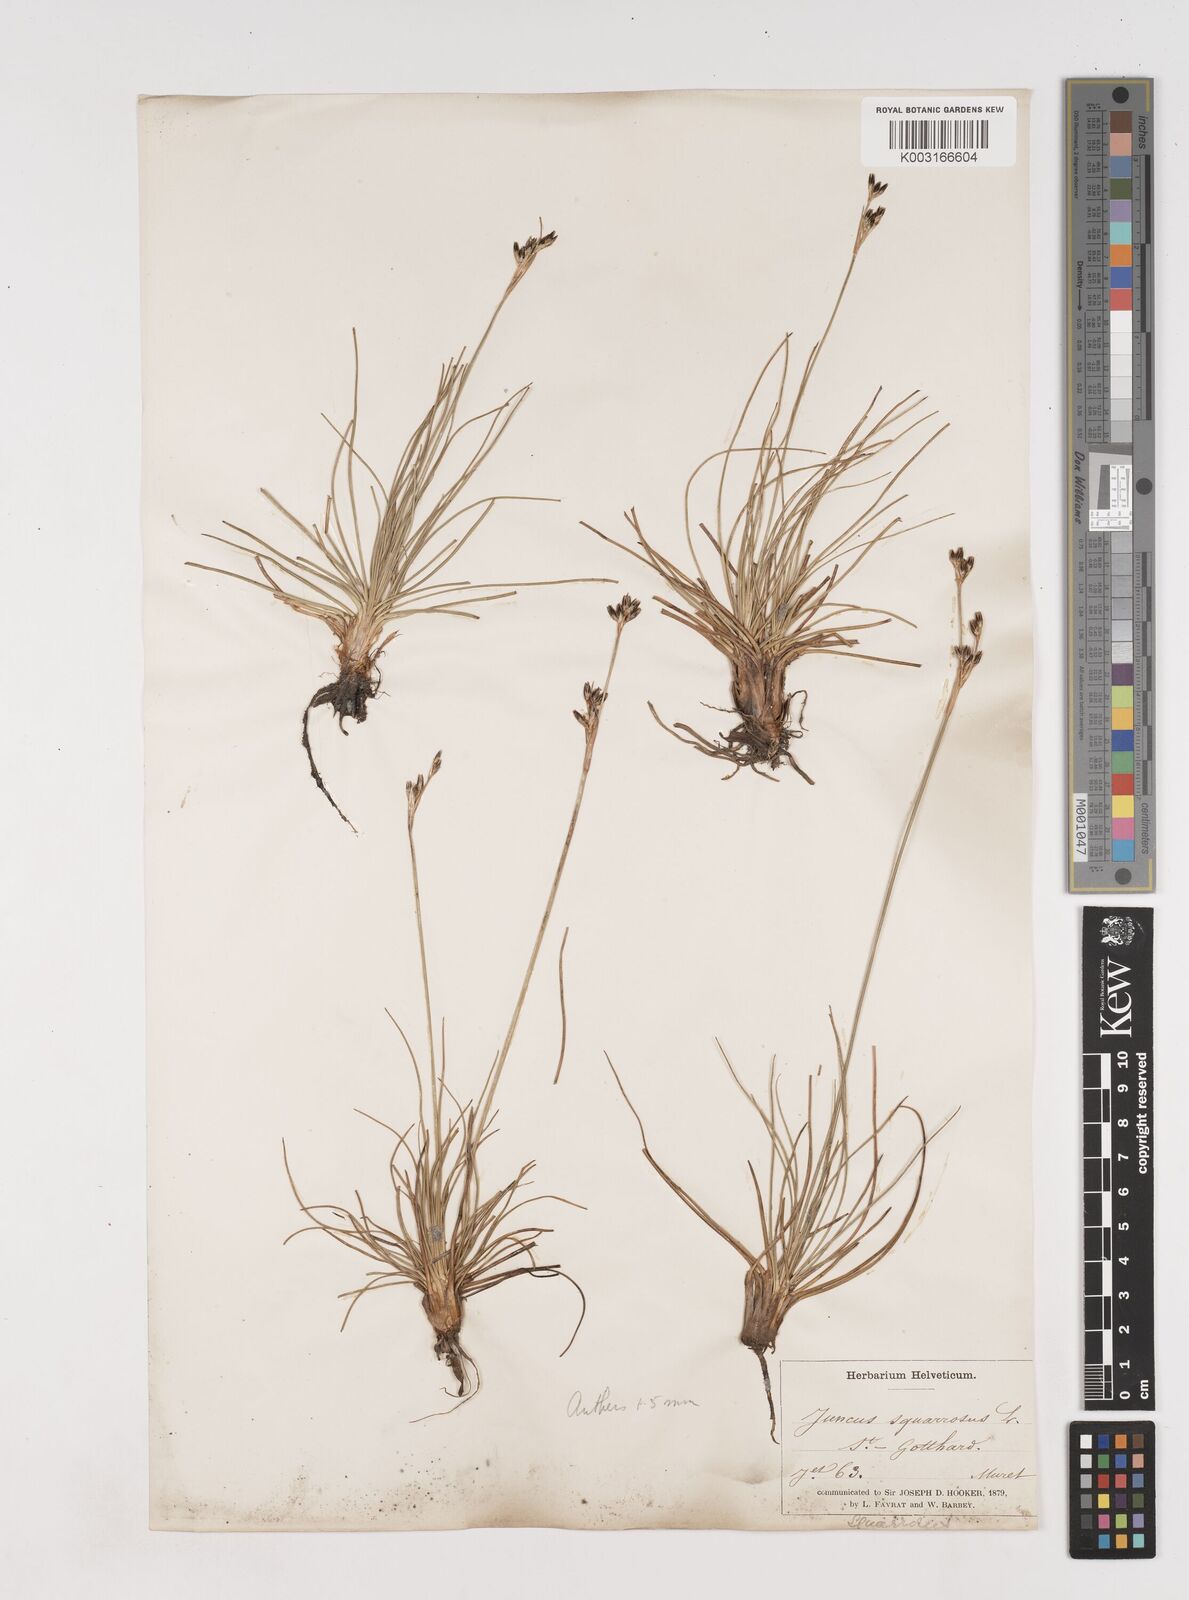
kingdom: Plantae
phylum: Tracheophyta
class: Liliopsida
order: Poales
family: Juncaceae
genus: Juncus
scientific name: Juncus squarrosus
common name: Heath rush
